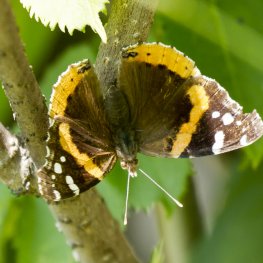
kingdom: Animalia
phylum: Arthropoda
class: Insecta
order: Lepidoptera
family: Nymphalidae
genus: Vanessa
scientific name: Vanessa atalanta
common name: Red Admiral
